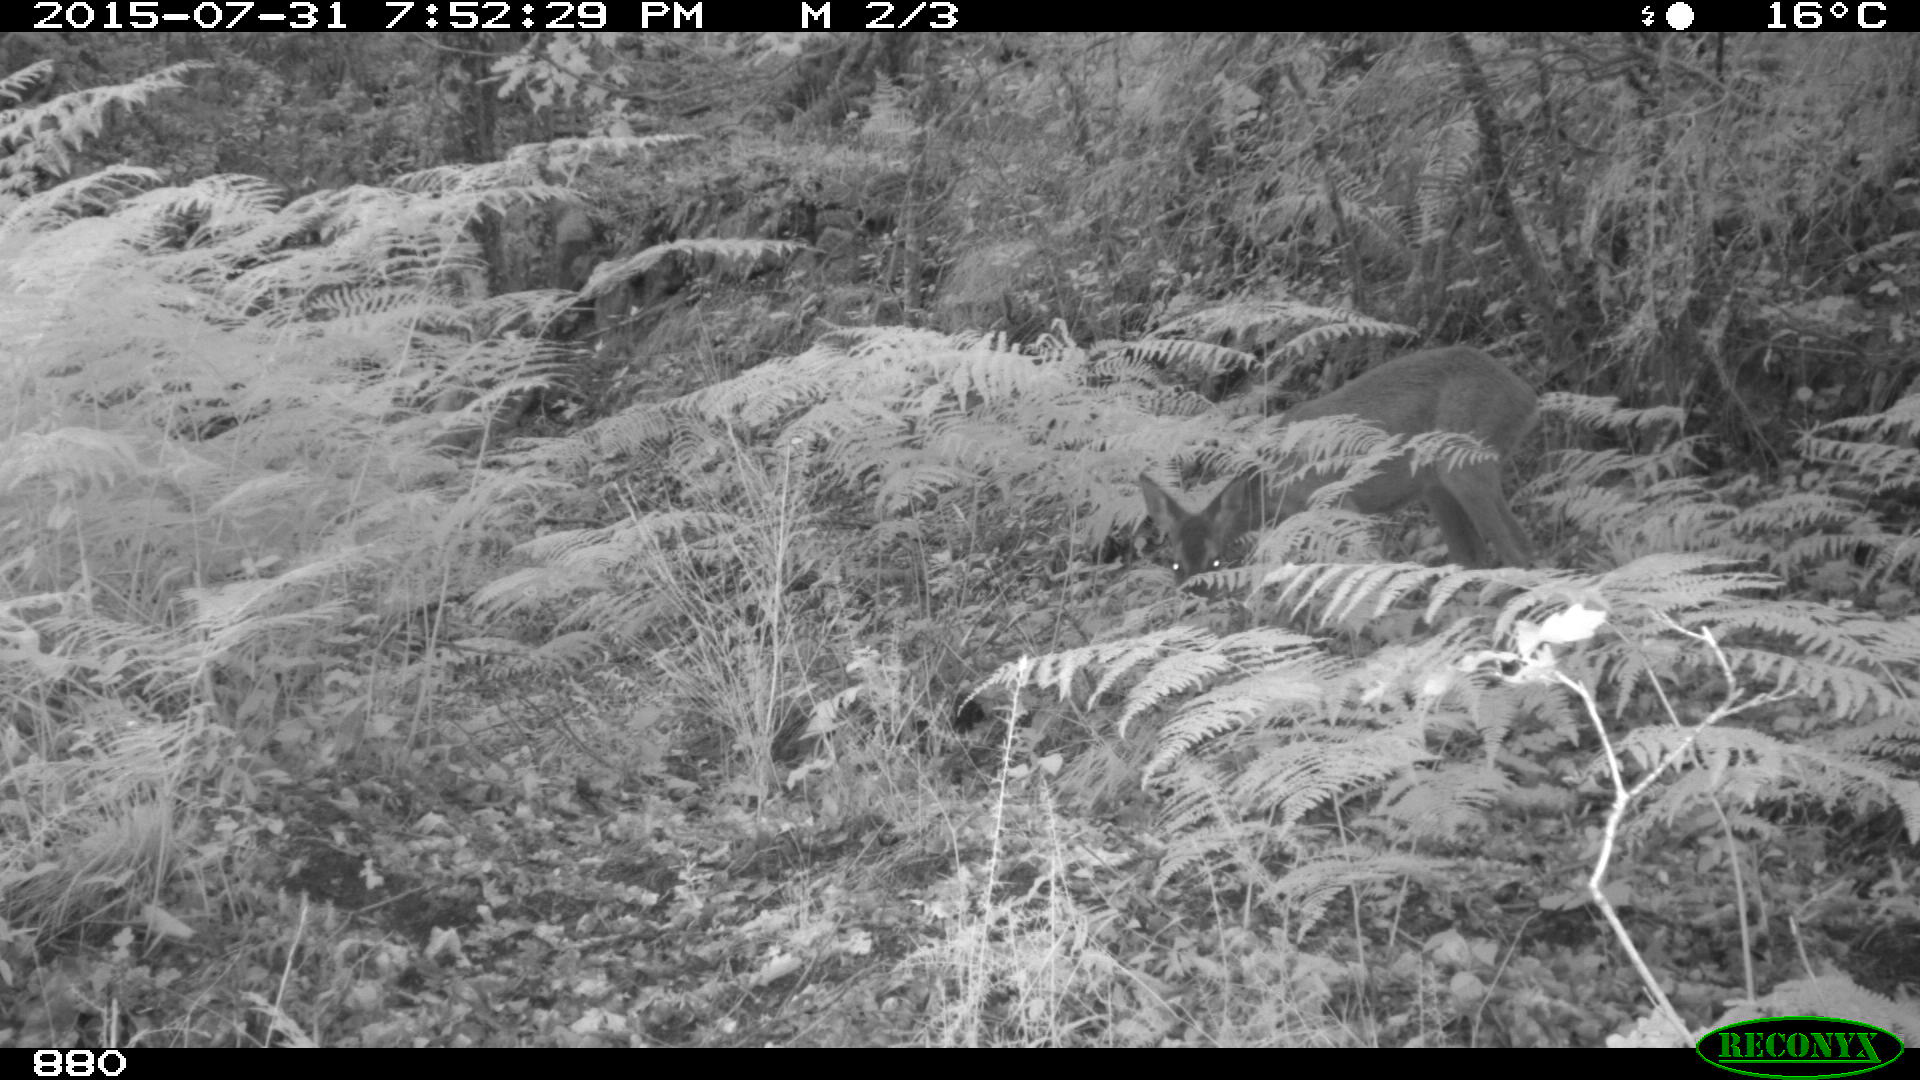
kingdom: Animalia
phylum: Chordata
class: Mammalia
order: Artiodactyla
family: Cervidae
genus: Capreolus
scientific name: Capreolus capreolus
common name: Western roe deer
